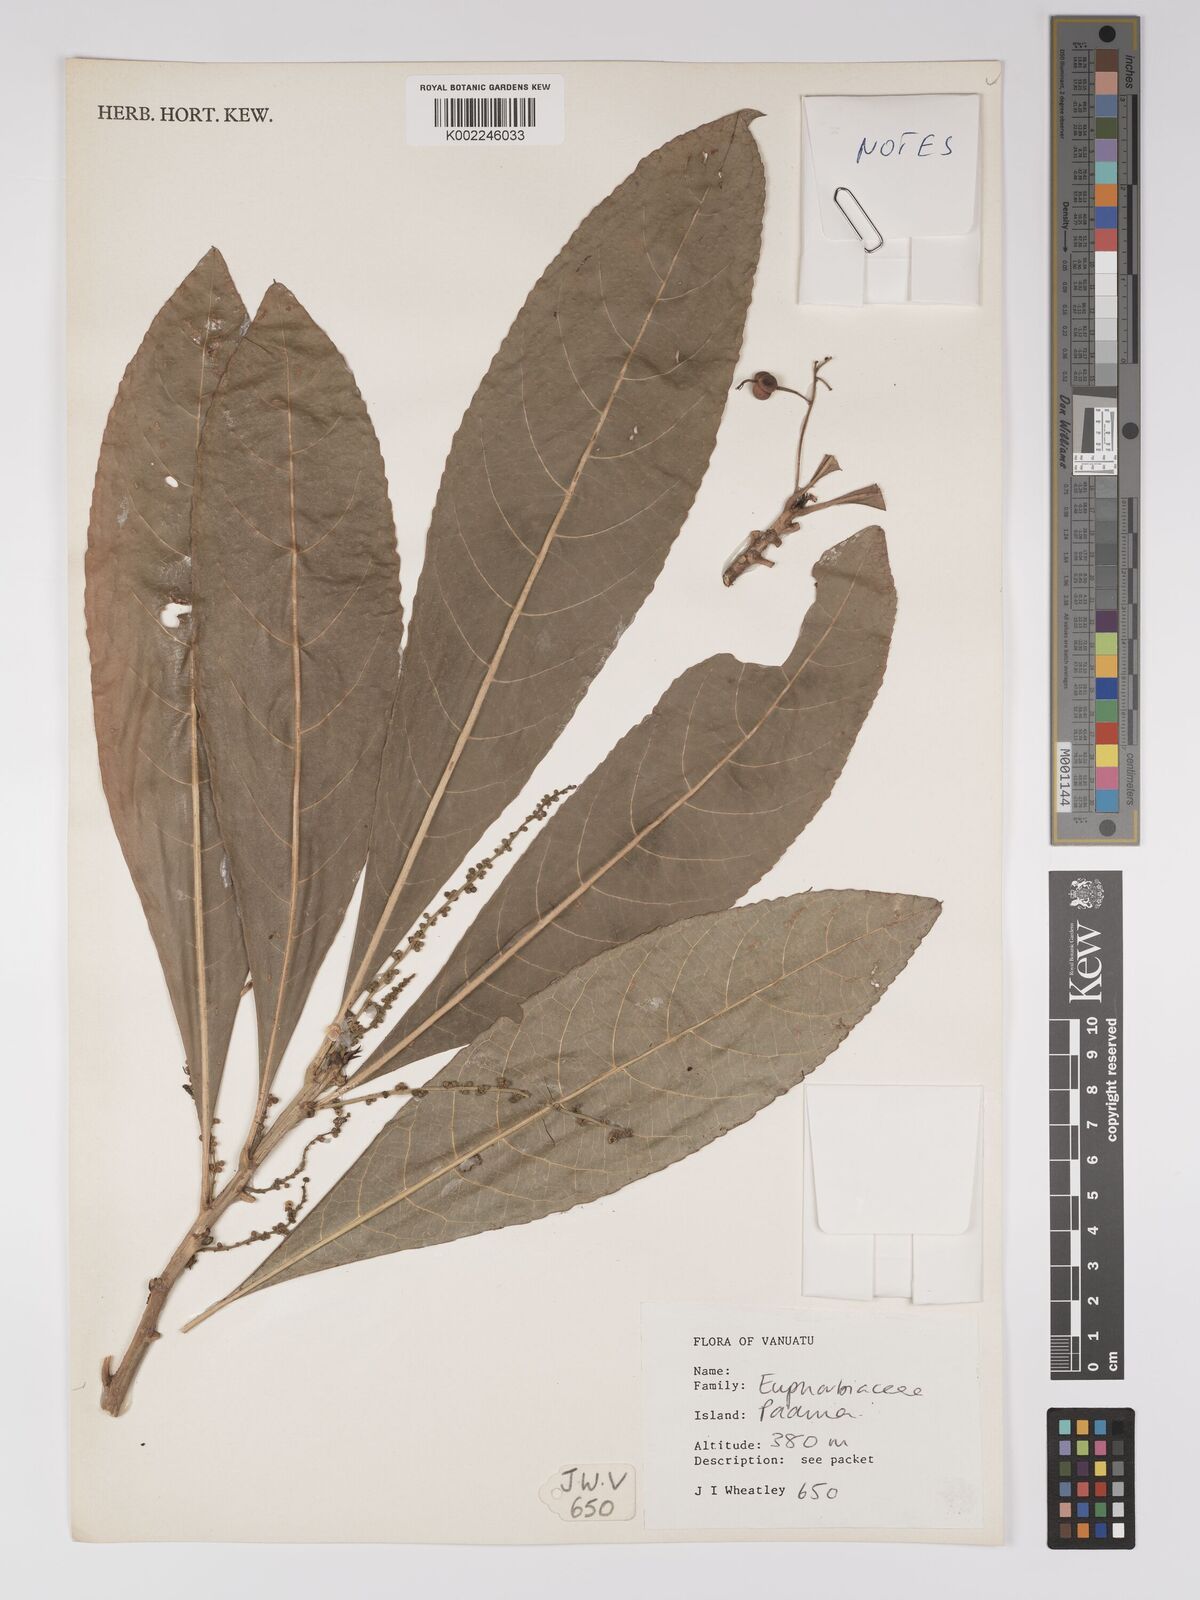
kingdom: Plantae
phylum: Tracheophyta
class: Magnoliopsida
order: Malpighiales
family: Euphorbiaceae
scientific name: Euphorbiaceae
